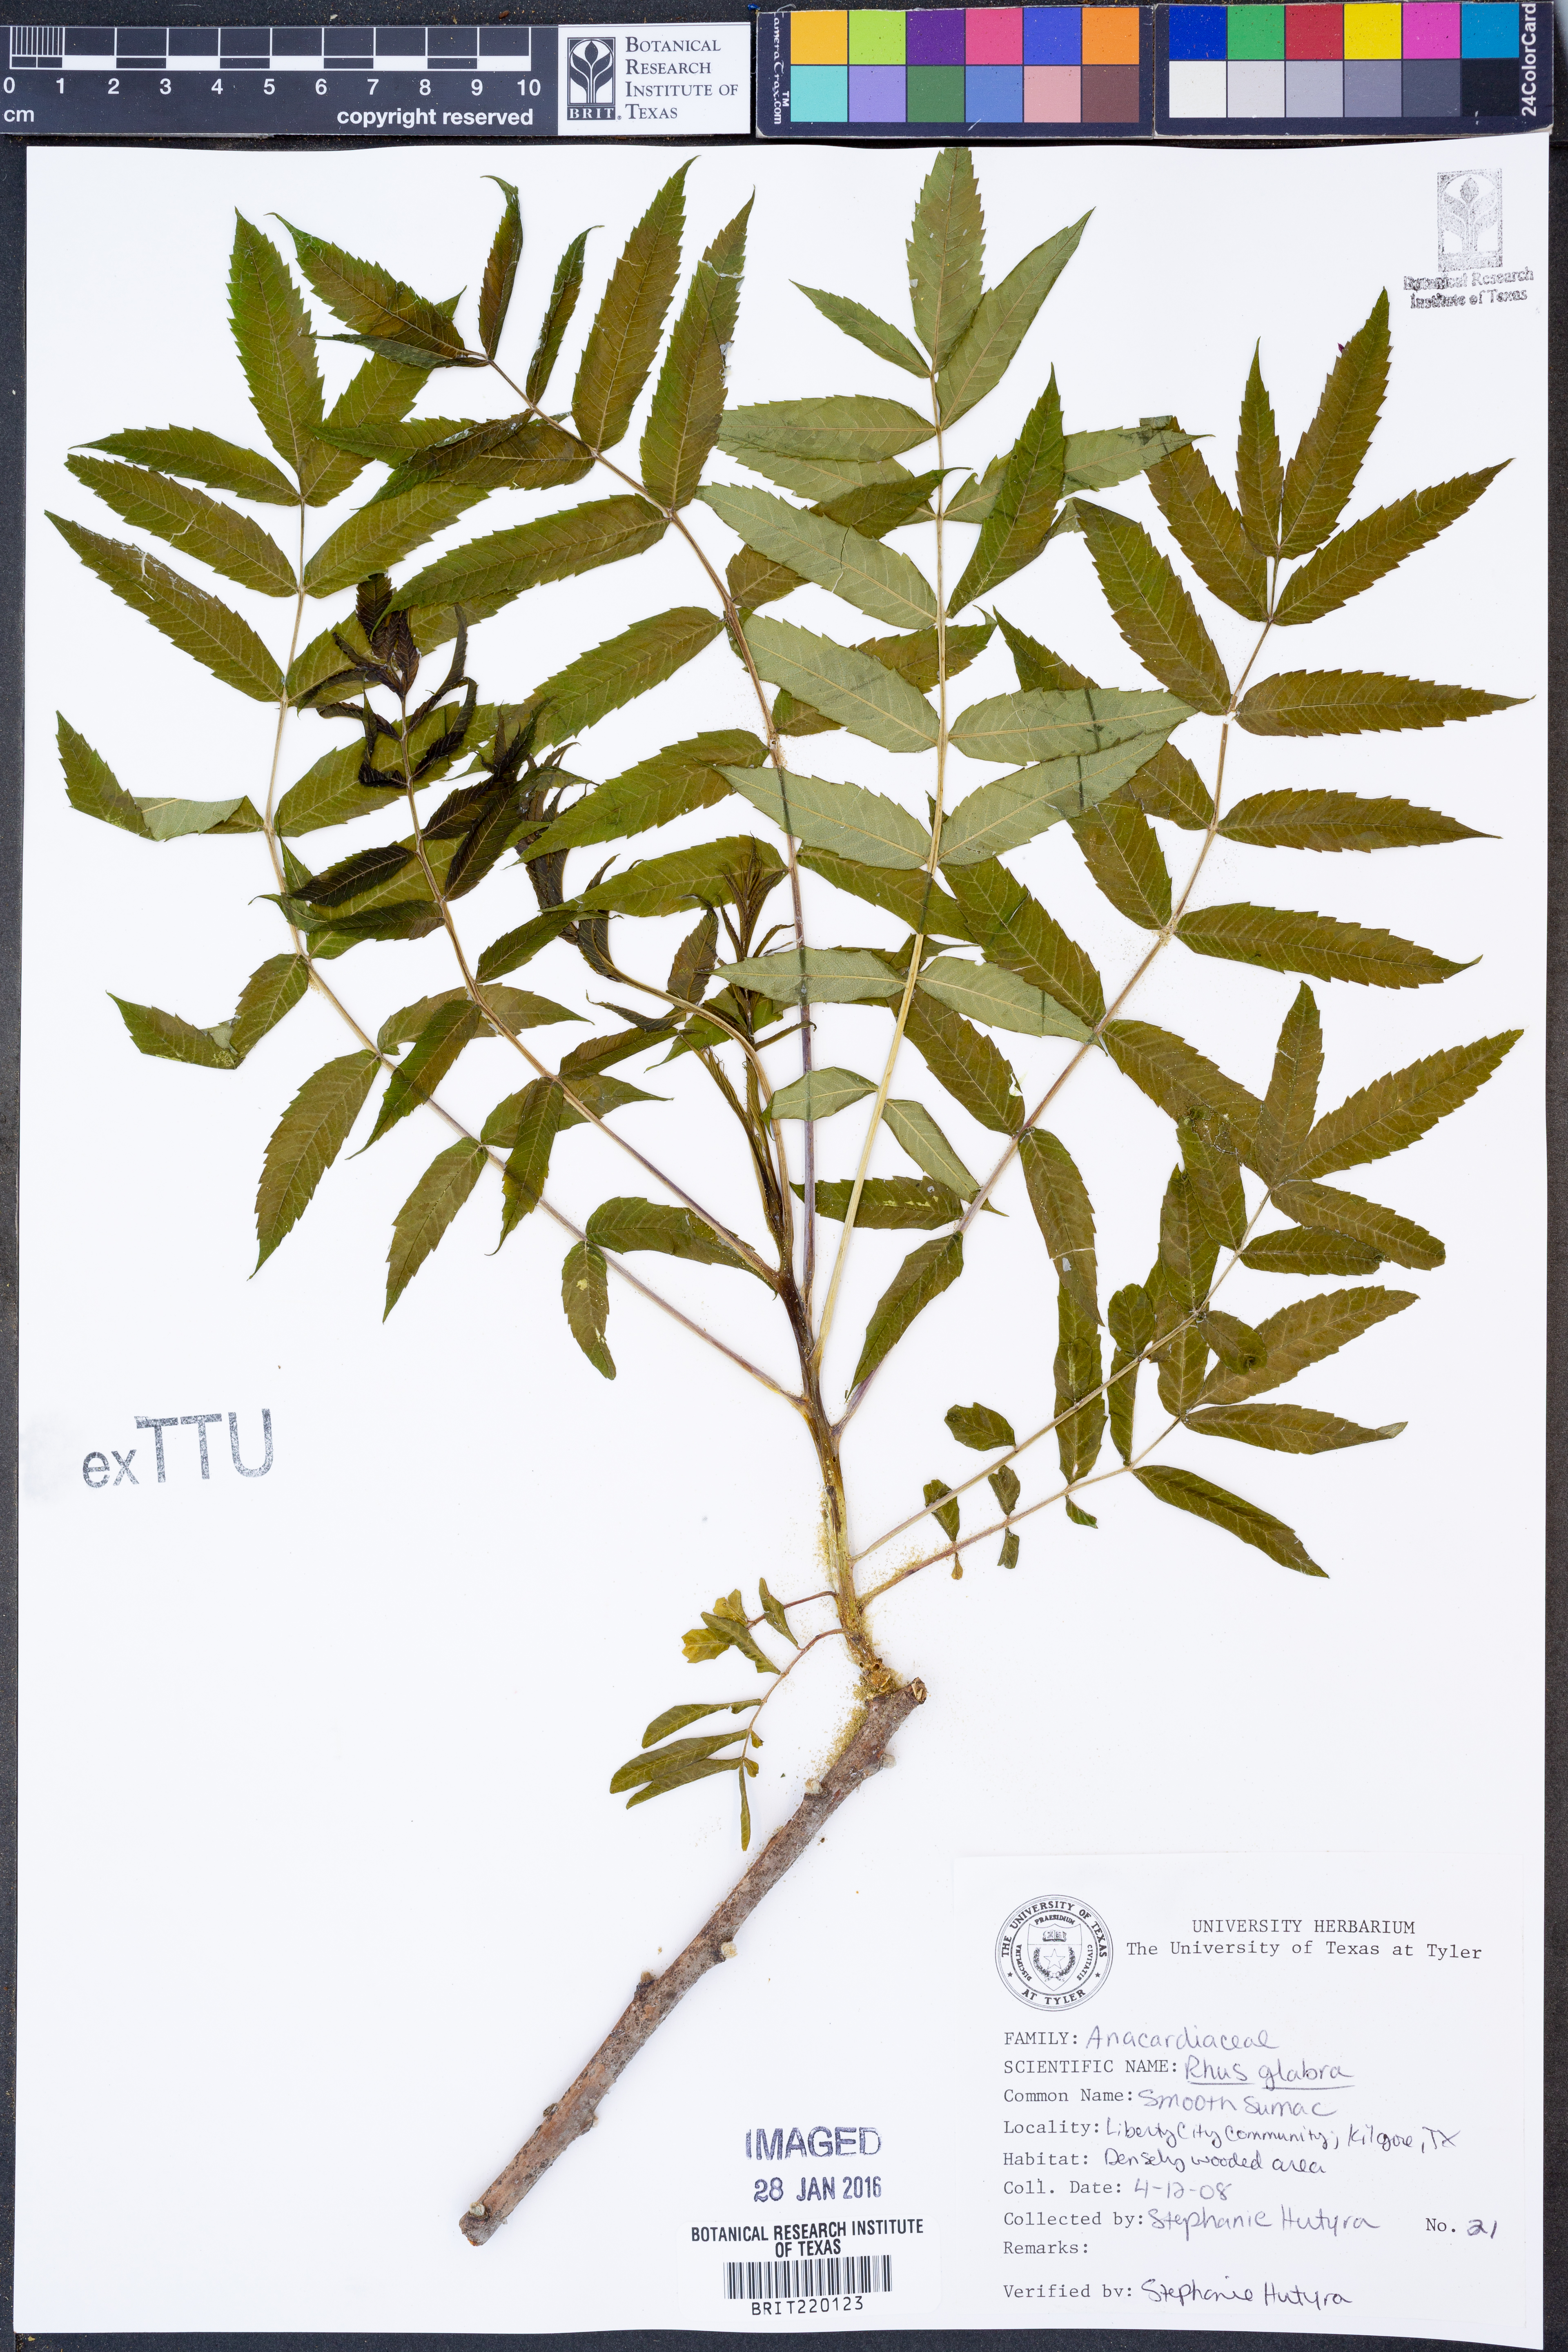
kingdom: Plantae
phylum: Tracheophyta
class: Magnoliopsida
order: Sapindales
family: Anacardiaceae
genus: Rhus
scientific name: Rhus glabra
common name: Scarlet sumac
